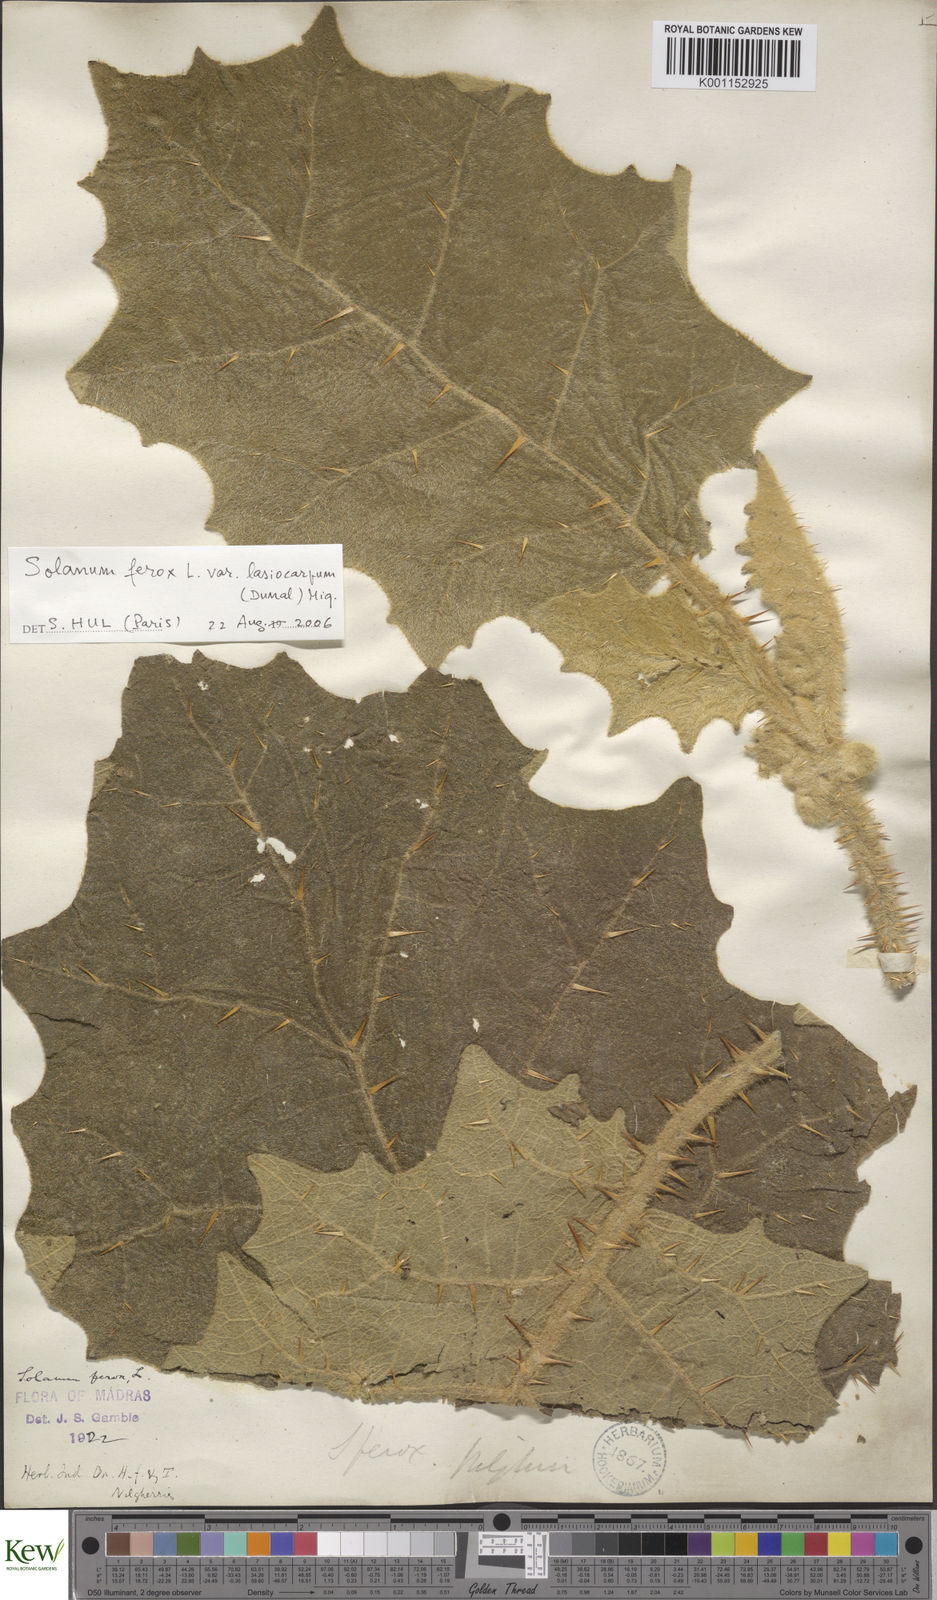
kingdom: Plantae
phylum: Tracheophyta
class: Magnoliopsida
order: Solanales
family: Solanaceae
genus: Solanum
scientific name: Solanum
